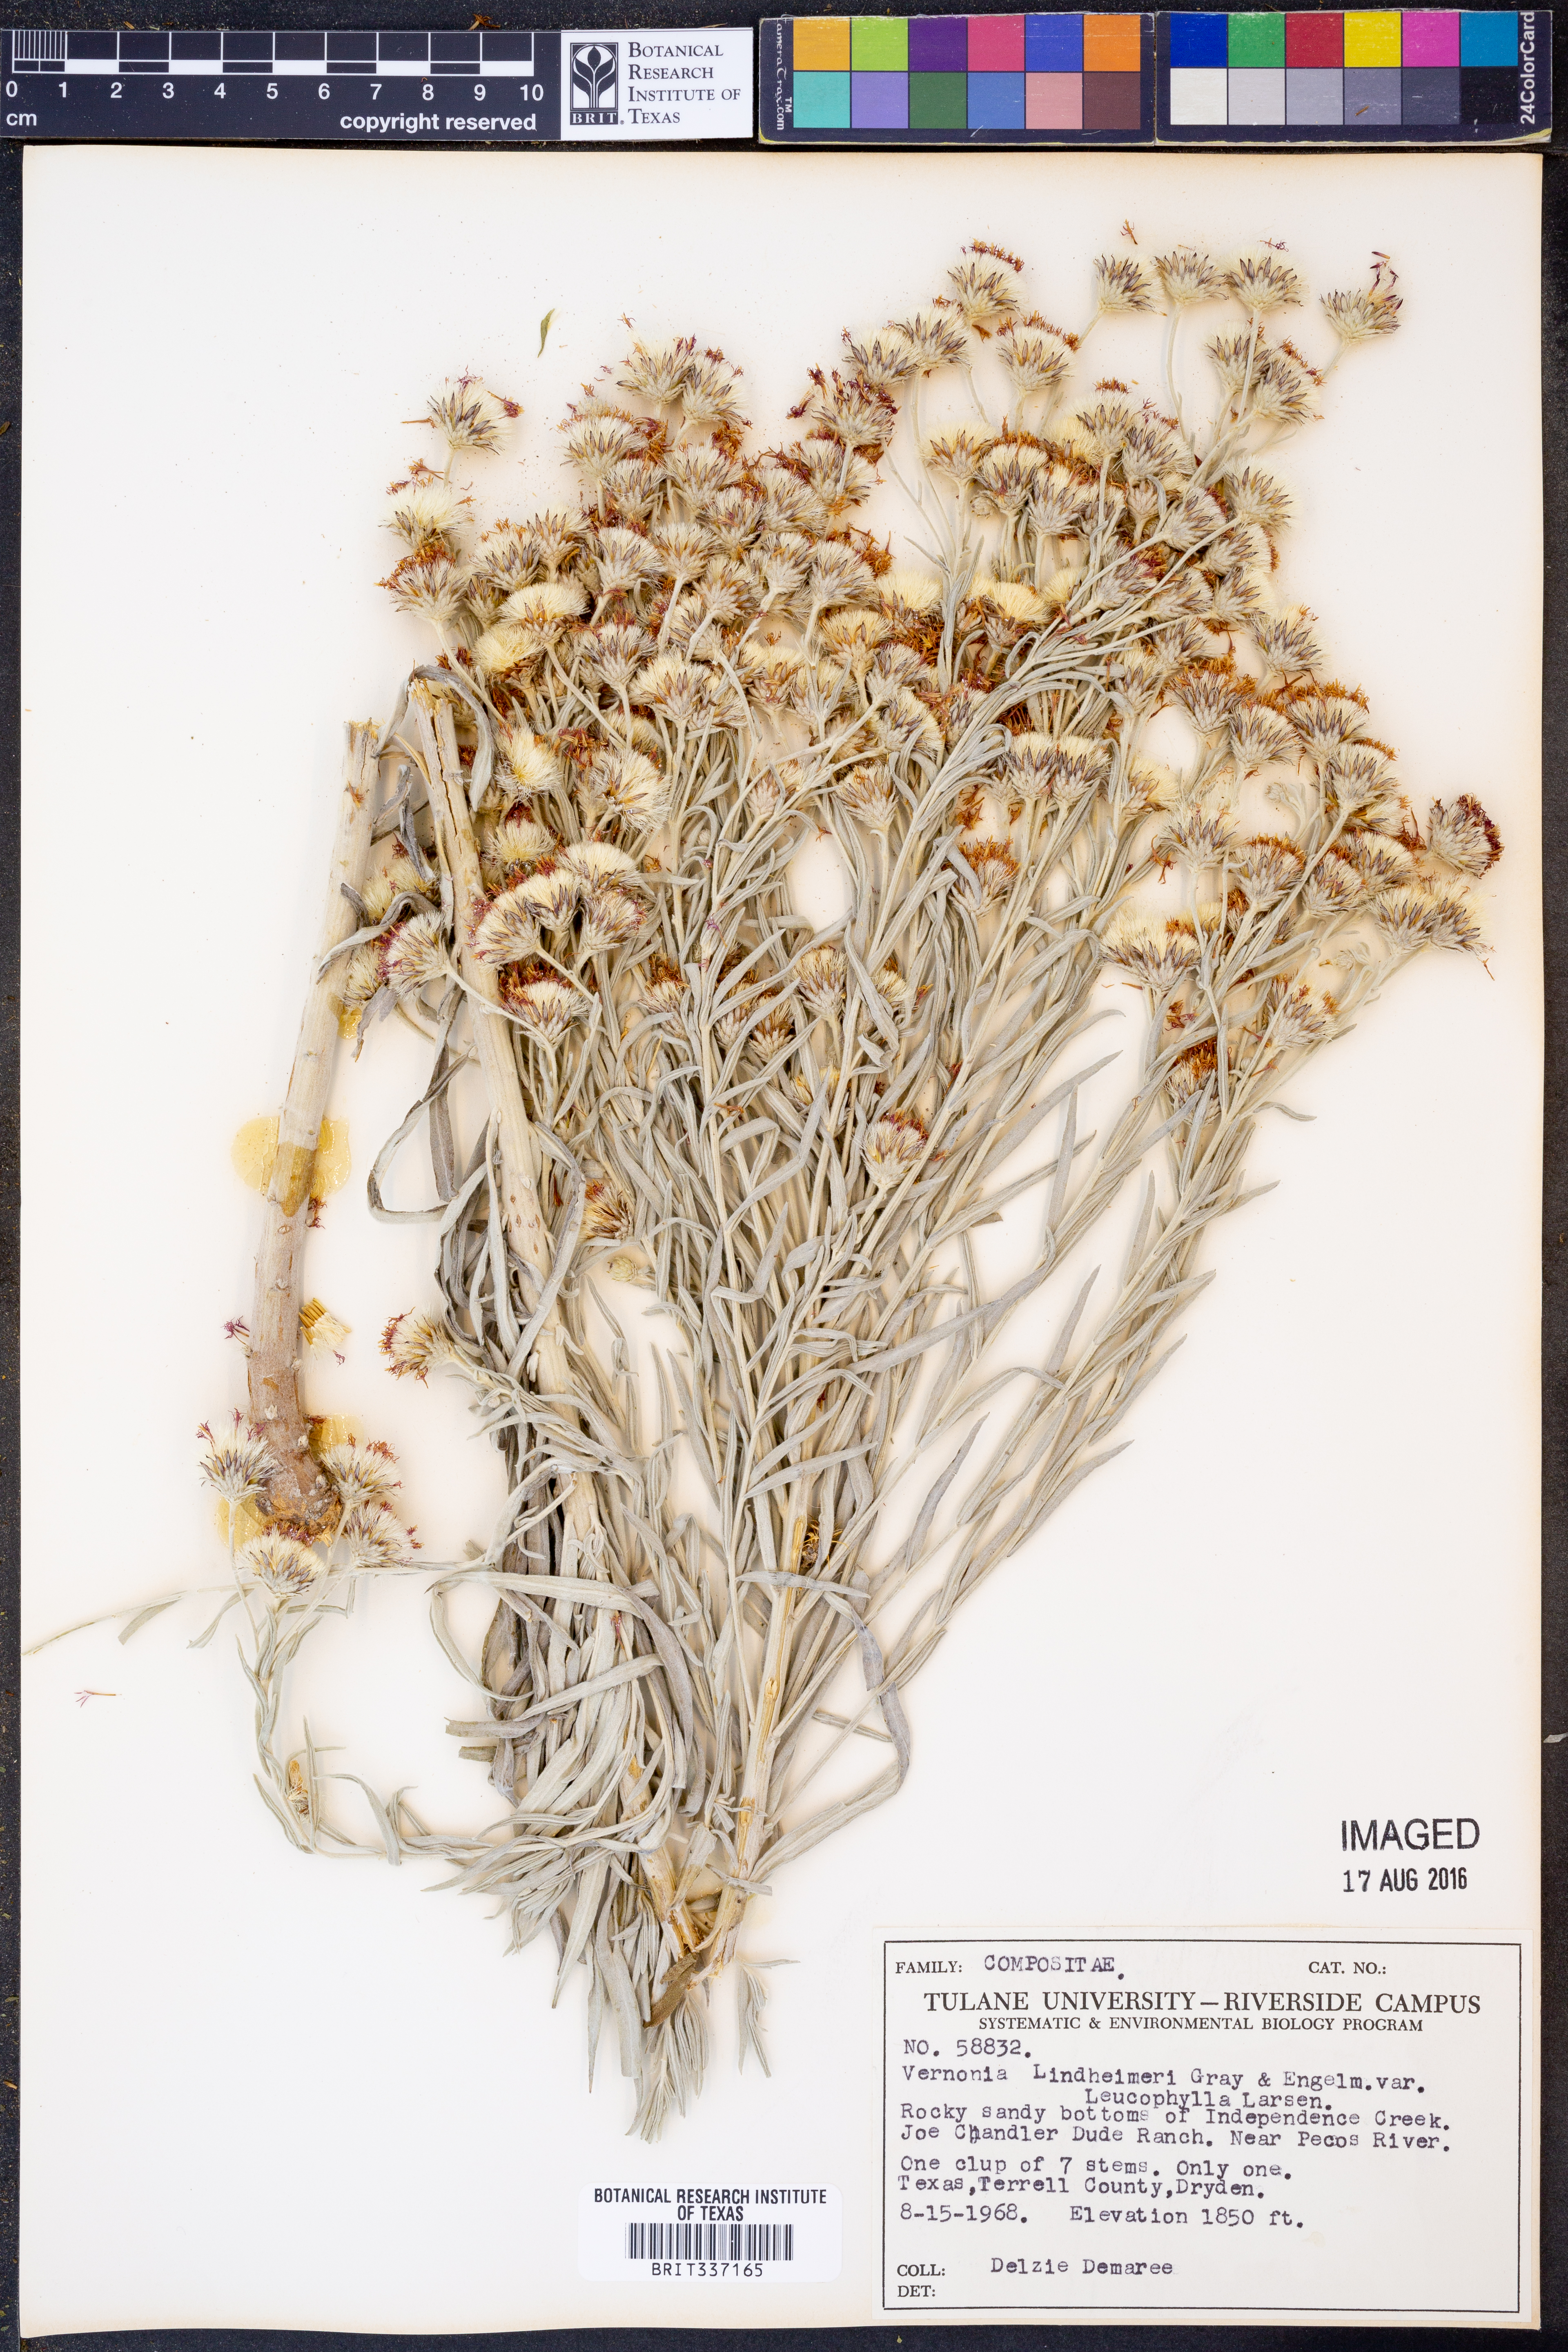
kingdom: Plantae
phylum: Tracheophyta
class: Magnoliopsida
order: Asterales
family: Asteraceae
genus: Vernonia
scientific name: Vernonia larsenii
